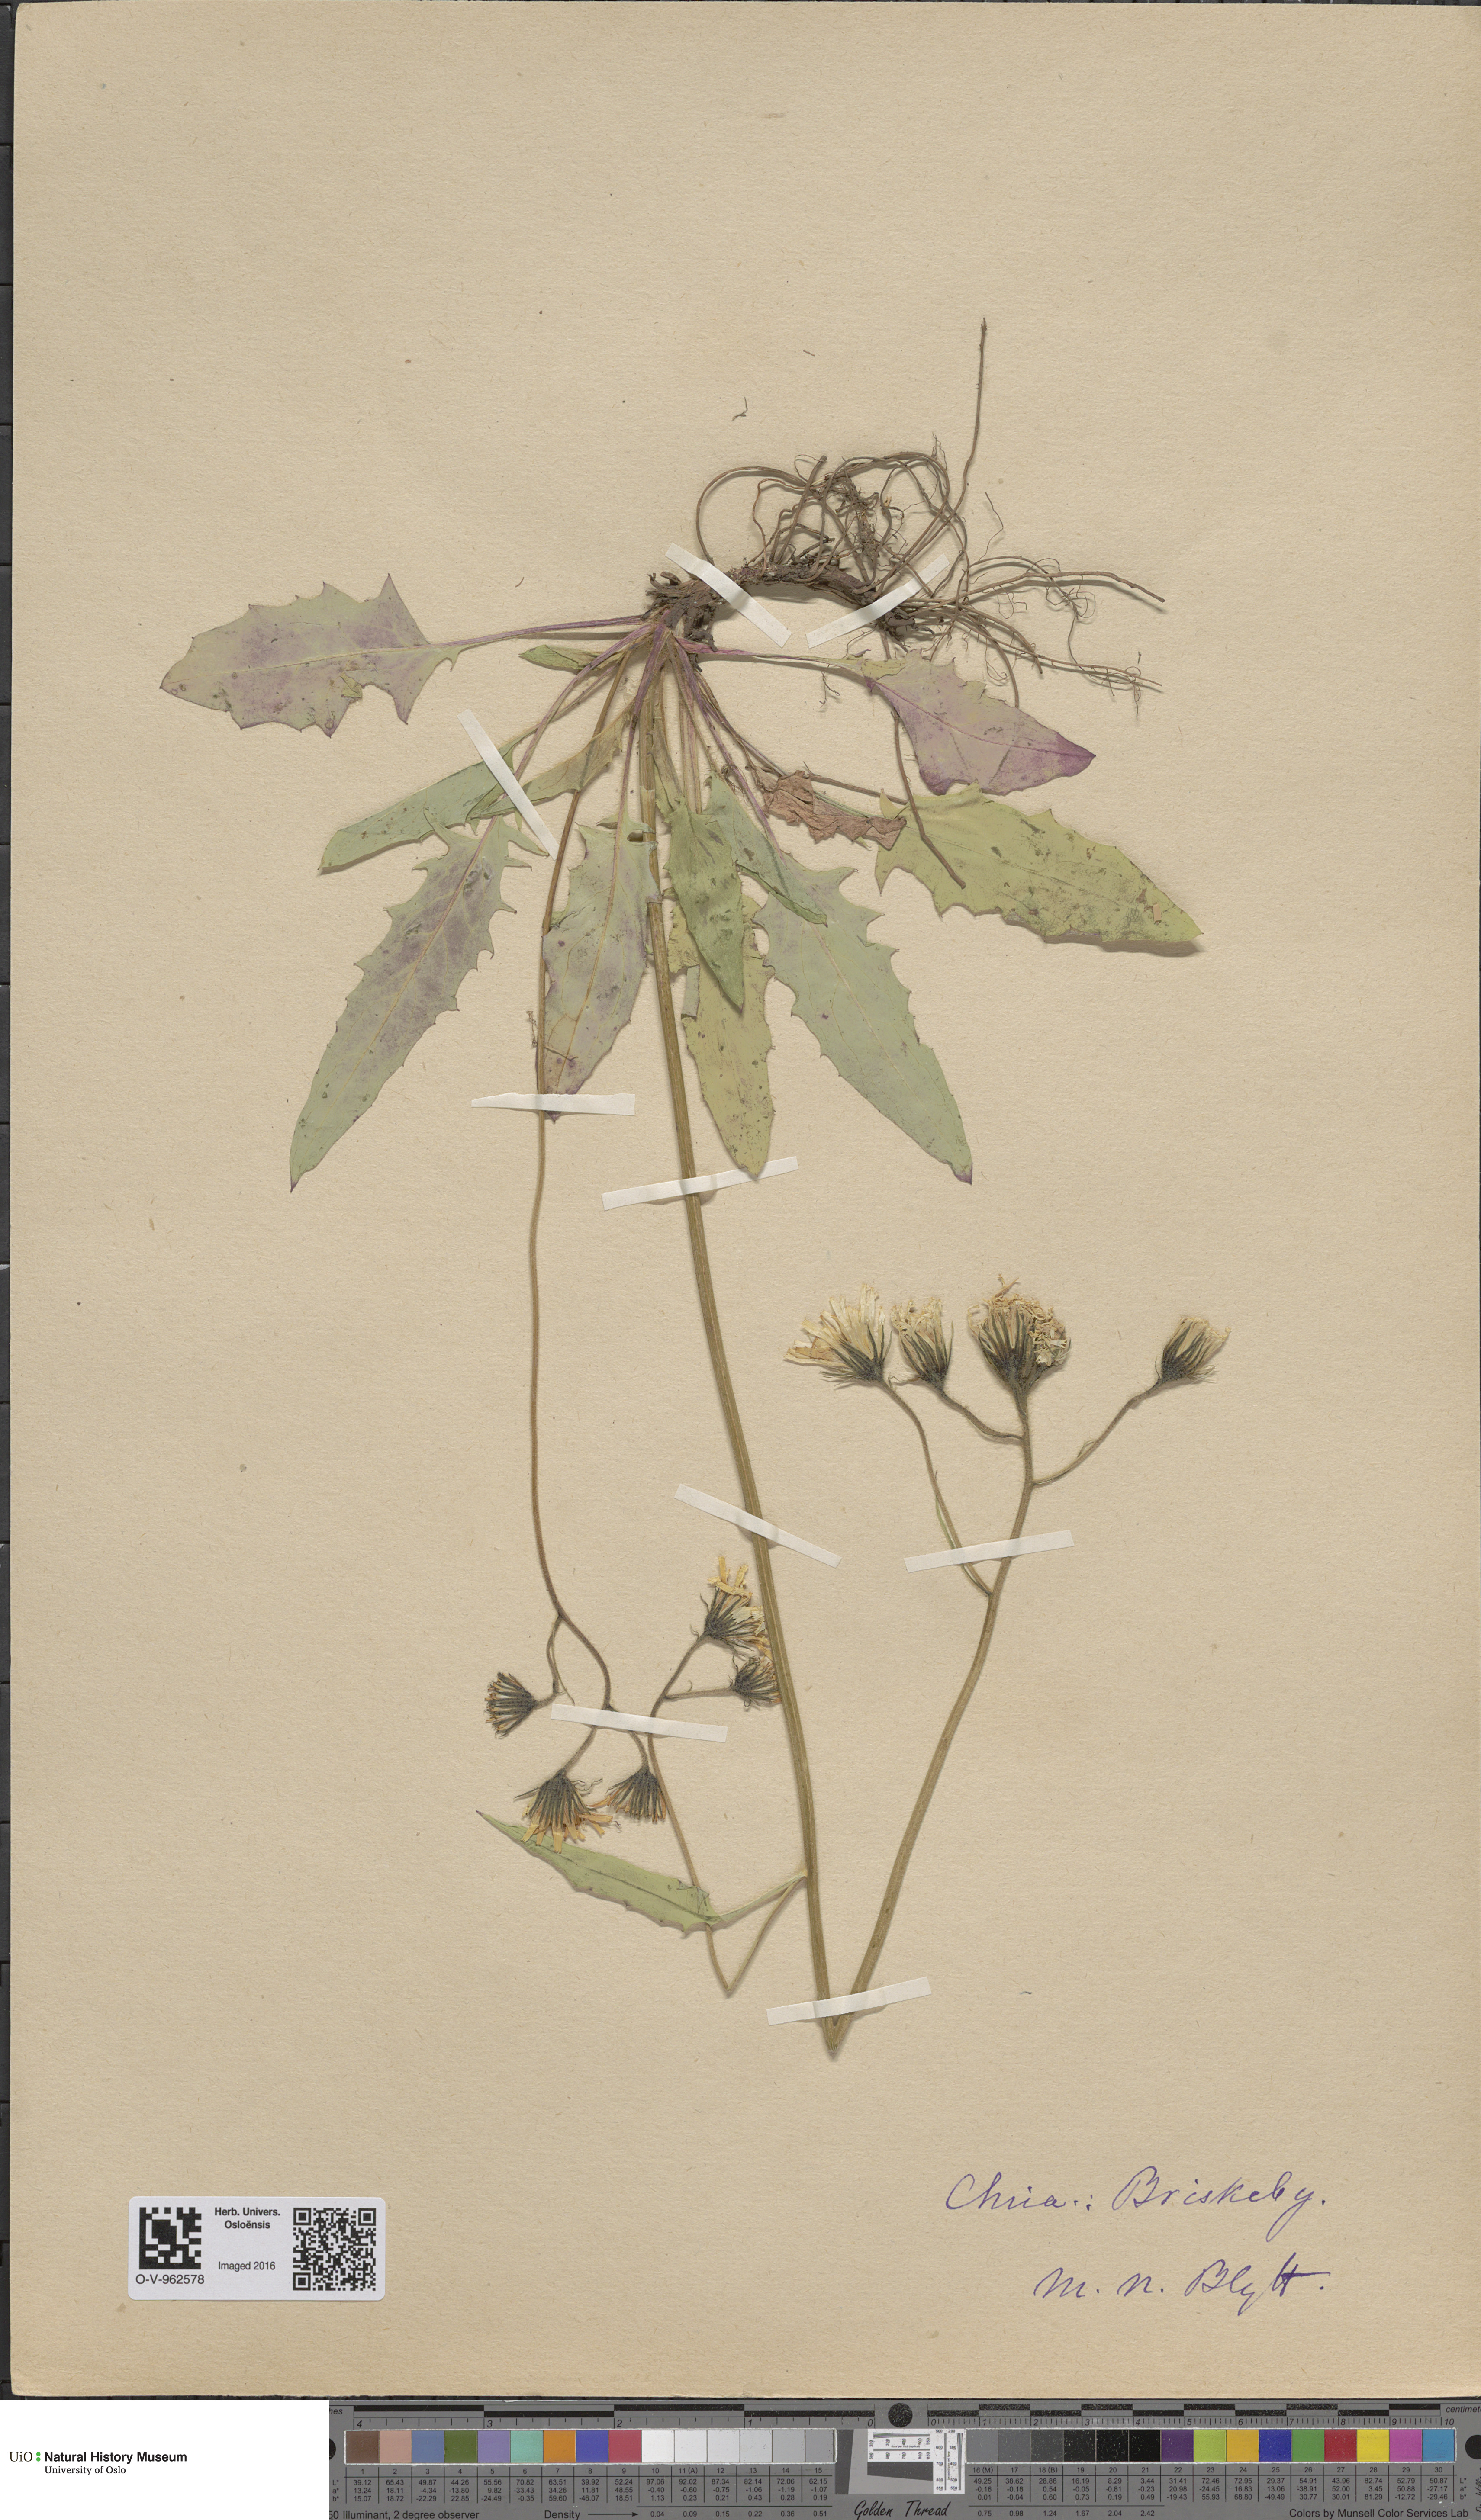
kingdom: Plantae
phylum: Tracheophyta
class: Magnoliopsida
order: Asterales
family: Asteraceae
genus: Hieracium
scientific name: Hieracium
